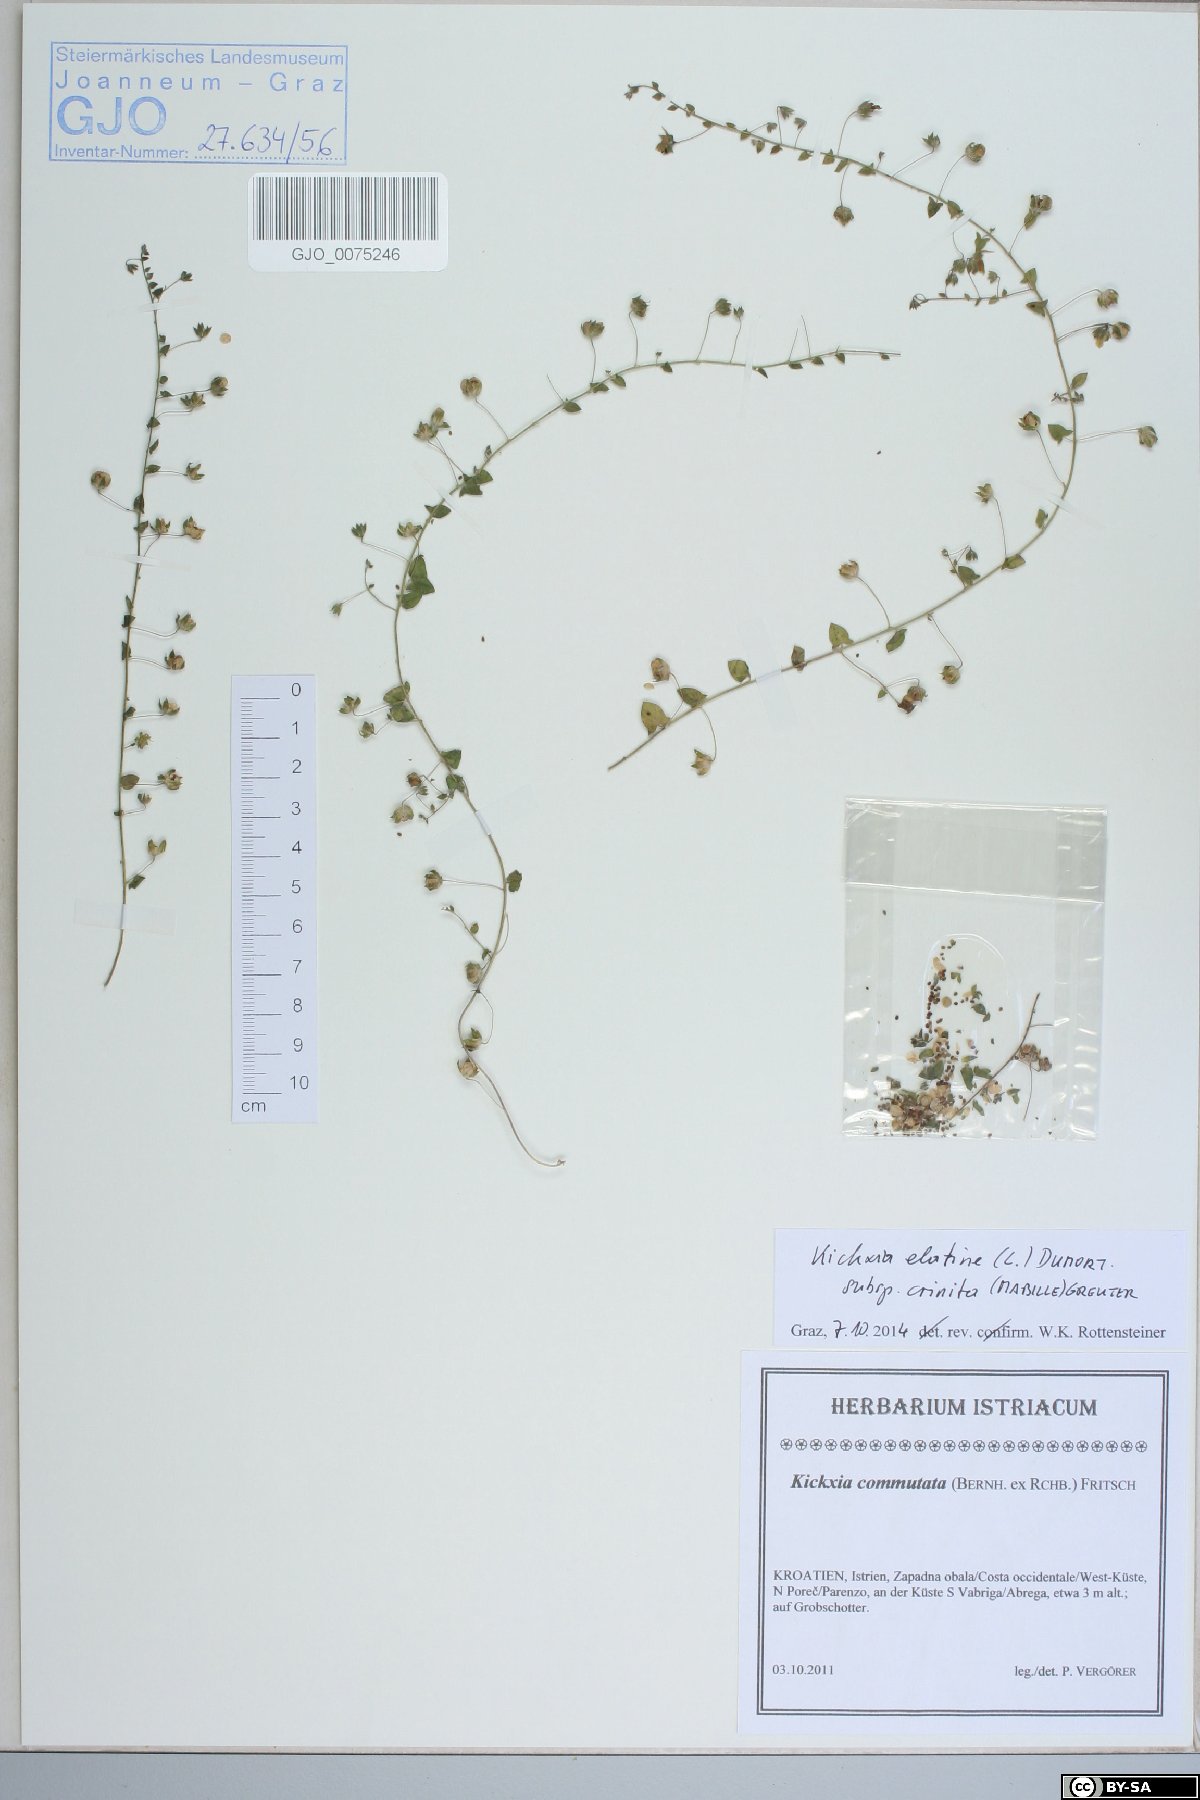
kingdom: Plantae
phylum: Tracheophyta
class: Magnoliopsida
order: Lamiales
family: Plantaginaceae
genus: Kickxia
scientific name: Kickxia elatine
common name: Sharp-leaved fluellen
